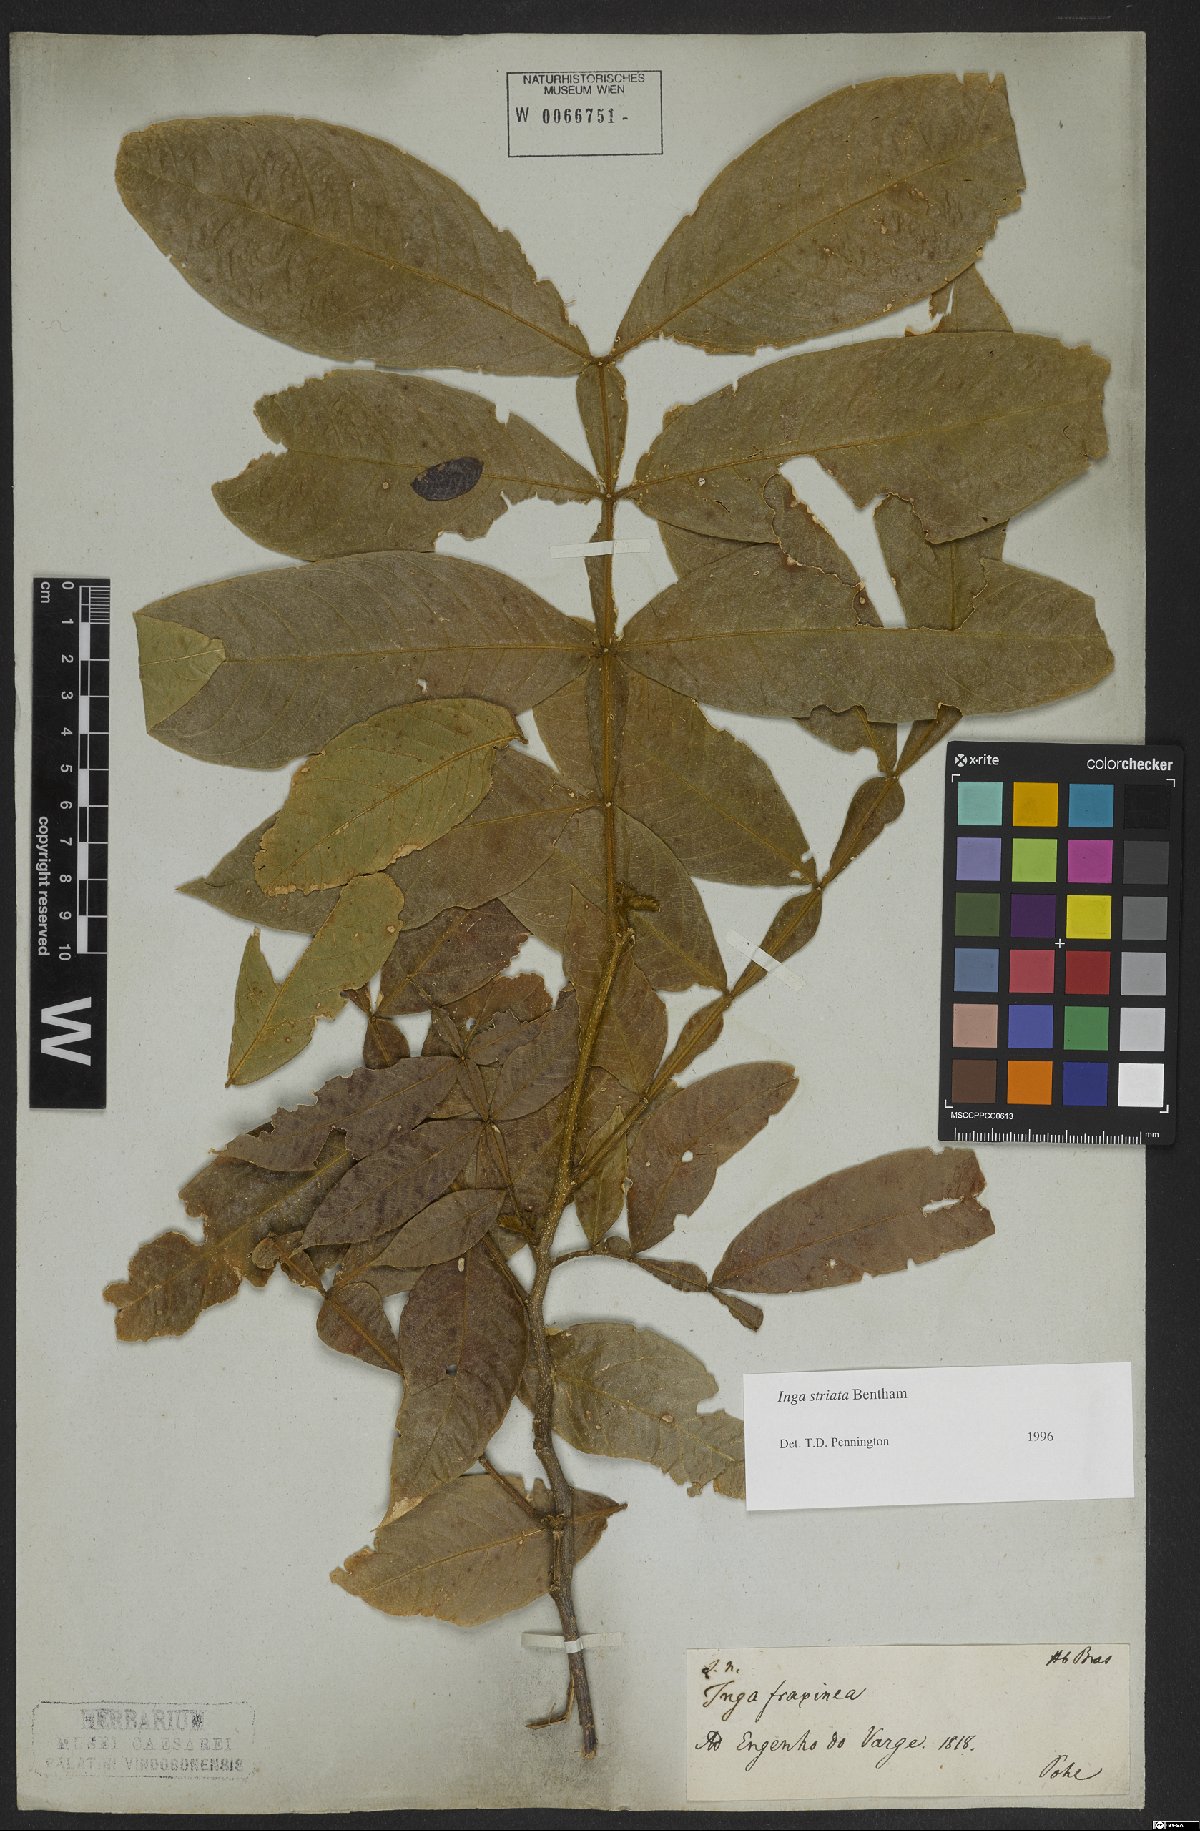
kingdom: Plantae
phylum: Tracheophyta
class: Magnoliopsida
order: Fabales
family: Fabaceae
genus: Inga
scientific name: Inga striata
